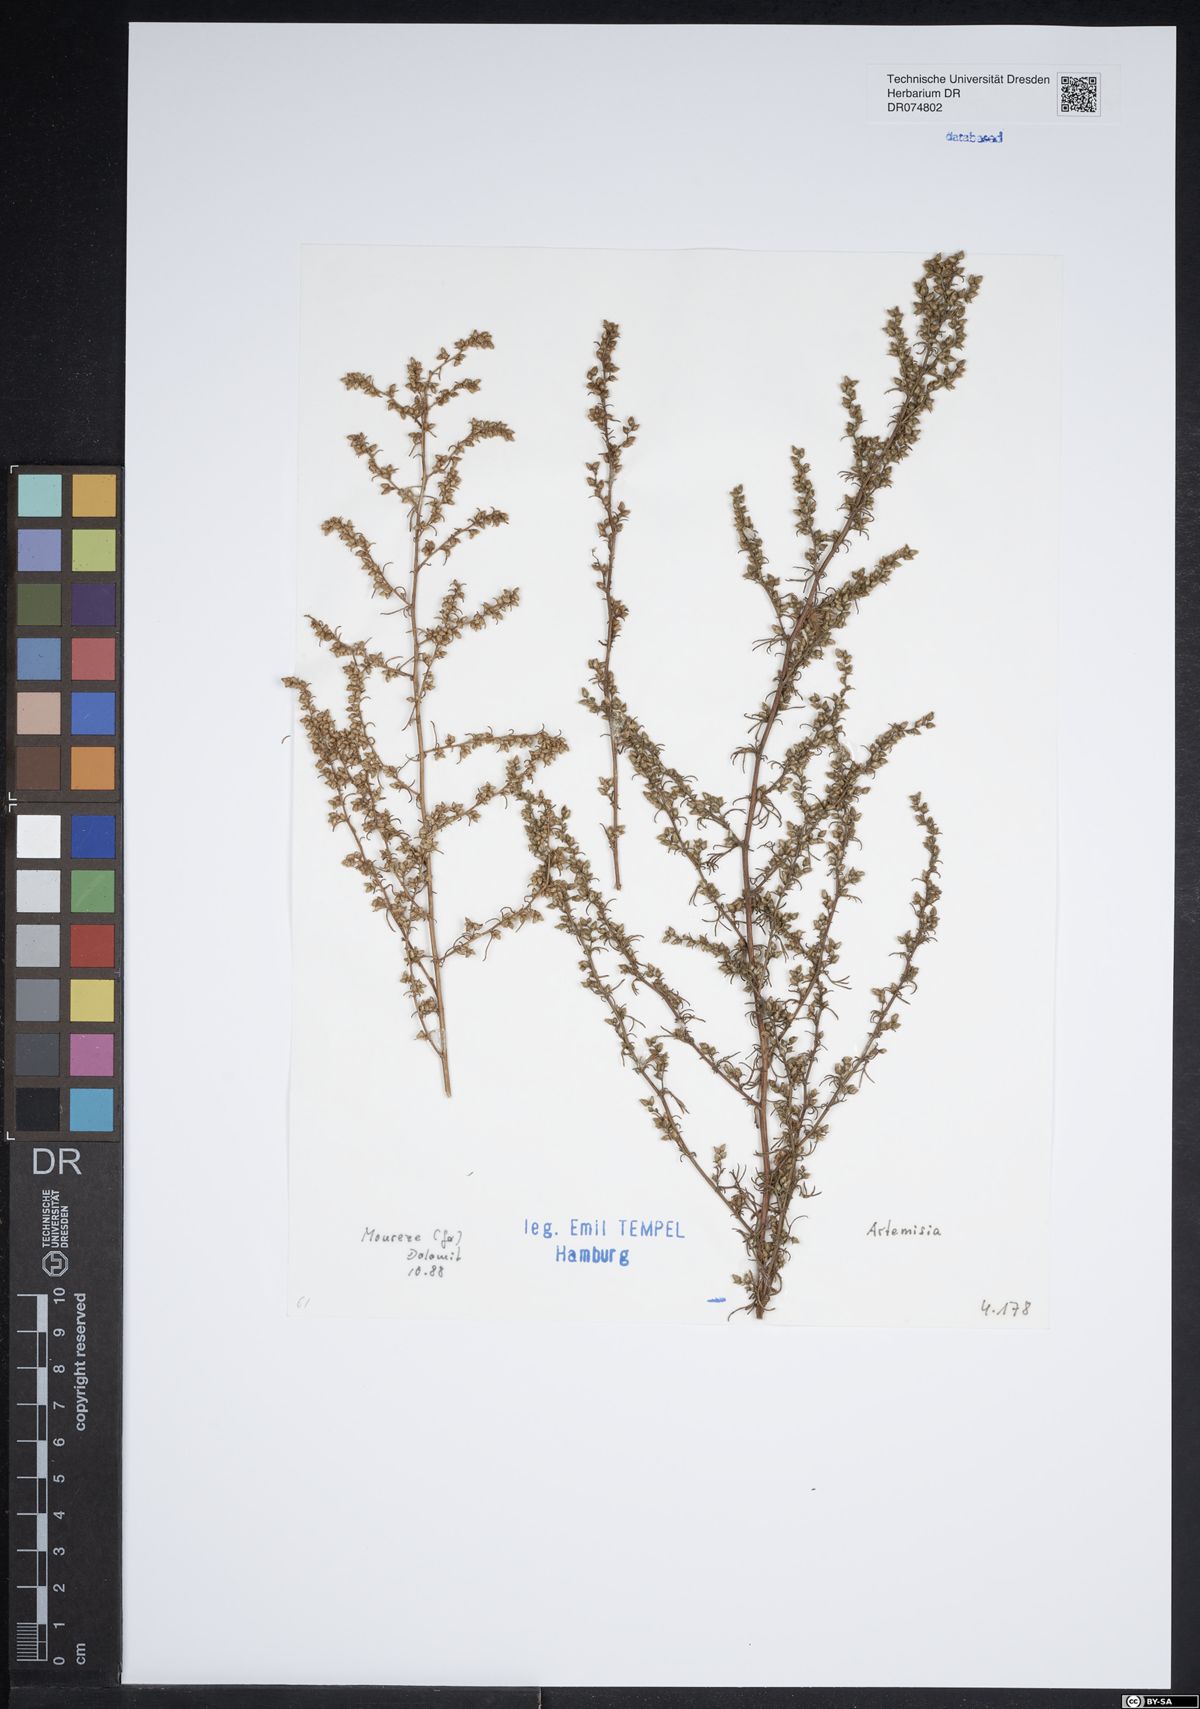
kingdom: Plantae
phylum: Tracheophyta
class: Magnoliopsida
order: Asterales
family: Asteraceae
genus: Artemisia
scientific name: Artemisia
